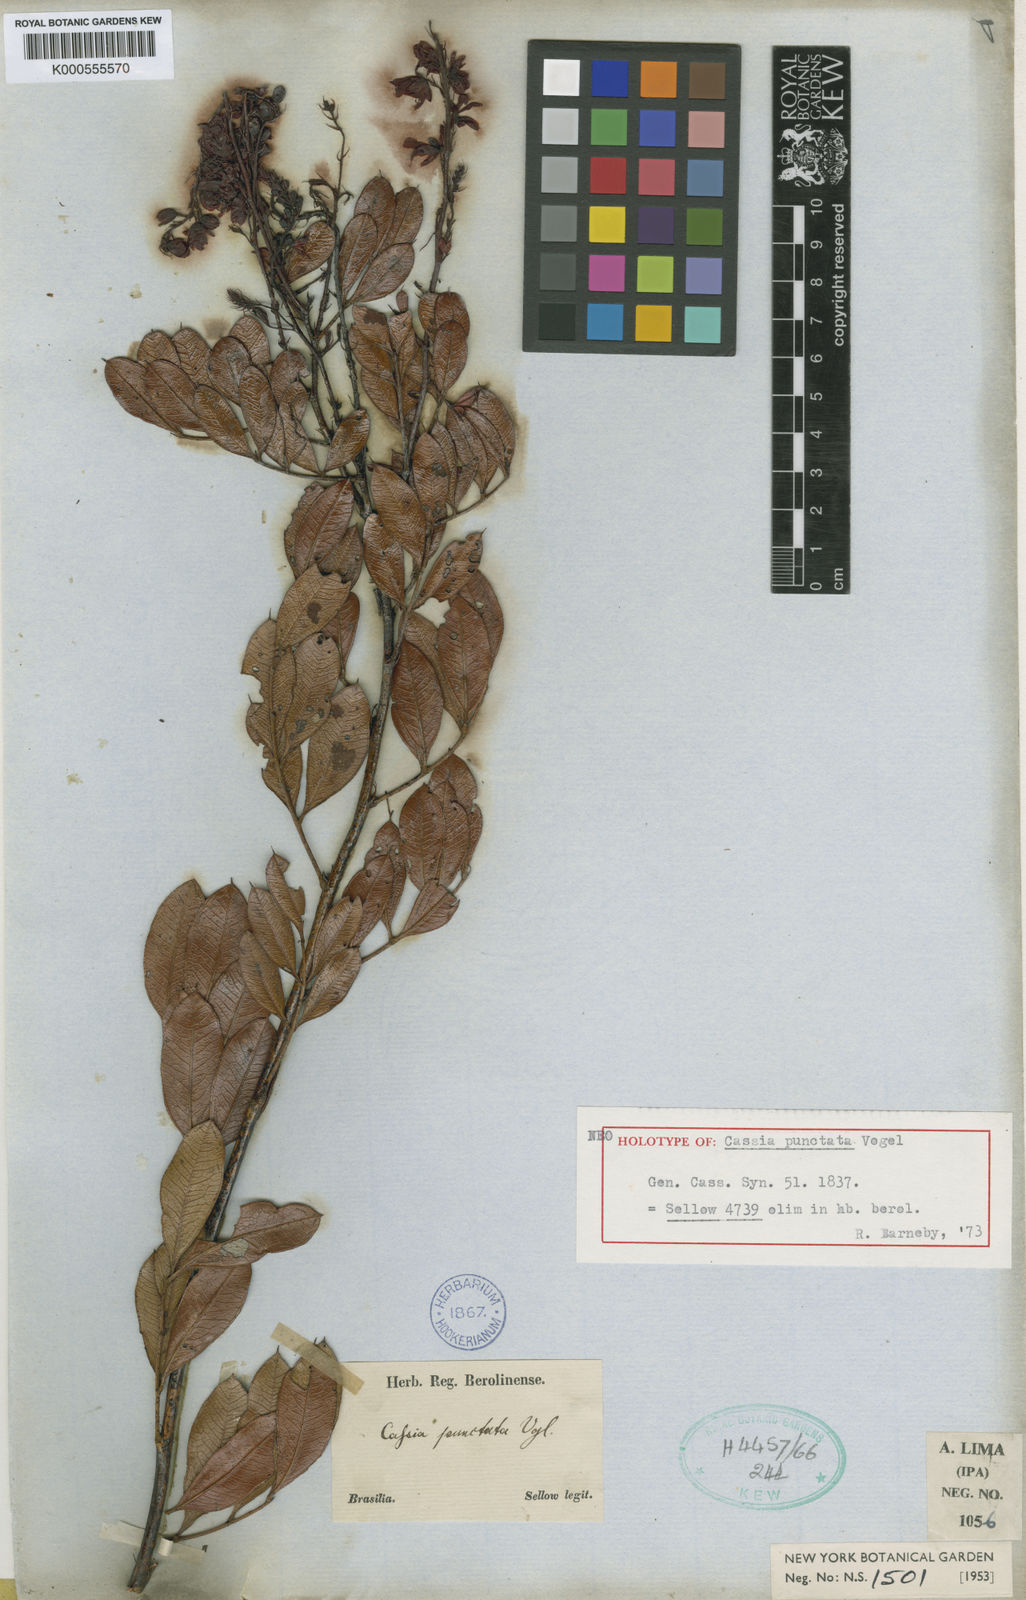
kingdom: Plantae
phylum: Tracheophyta
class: Magnoliopsida
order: Fabales
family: Fabaceae
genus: Chamaecrista
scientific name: Chamaecrista punctata
